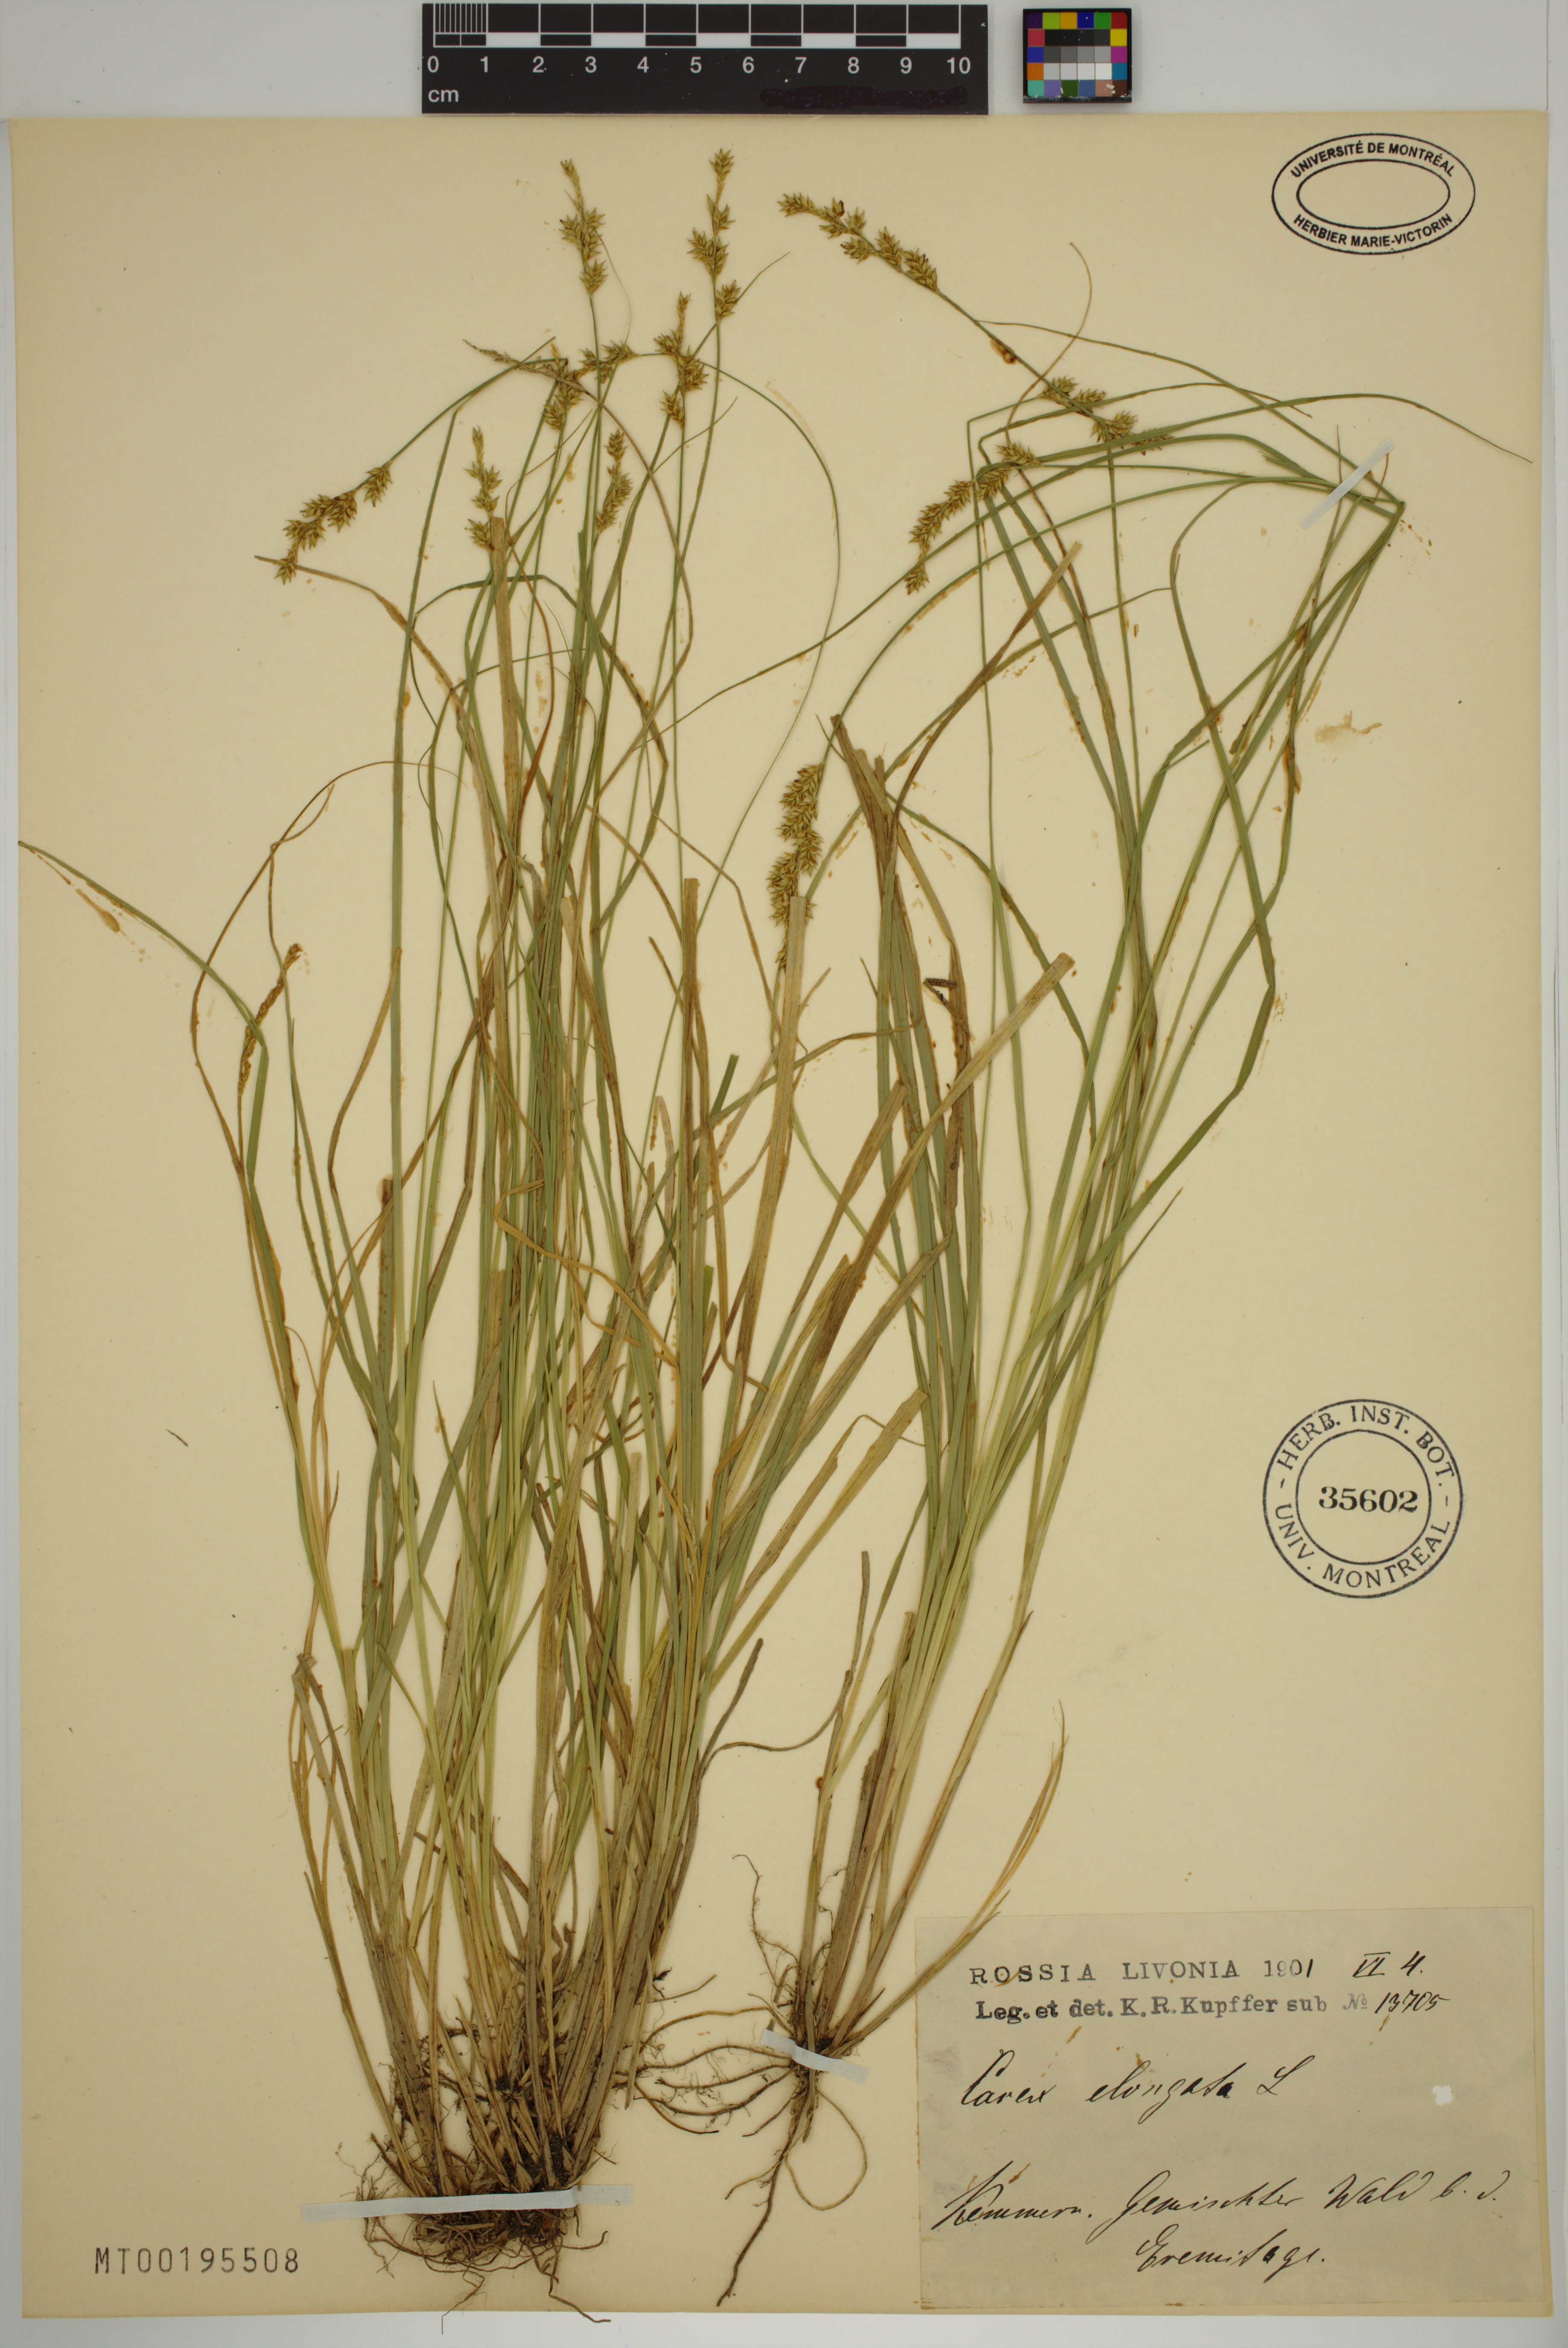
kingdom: Plantae
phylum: Tracheophyta
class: Liliopsida
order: Poales
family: Cyperaceae
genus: Carex
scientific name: Carex elongata
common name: Elongated sedge
